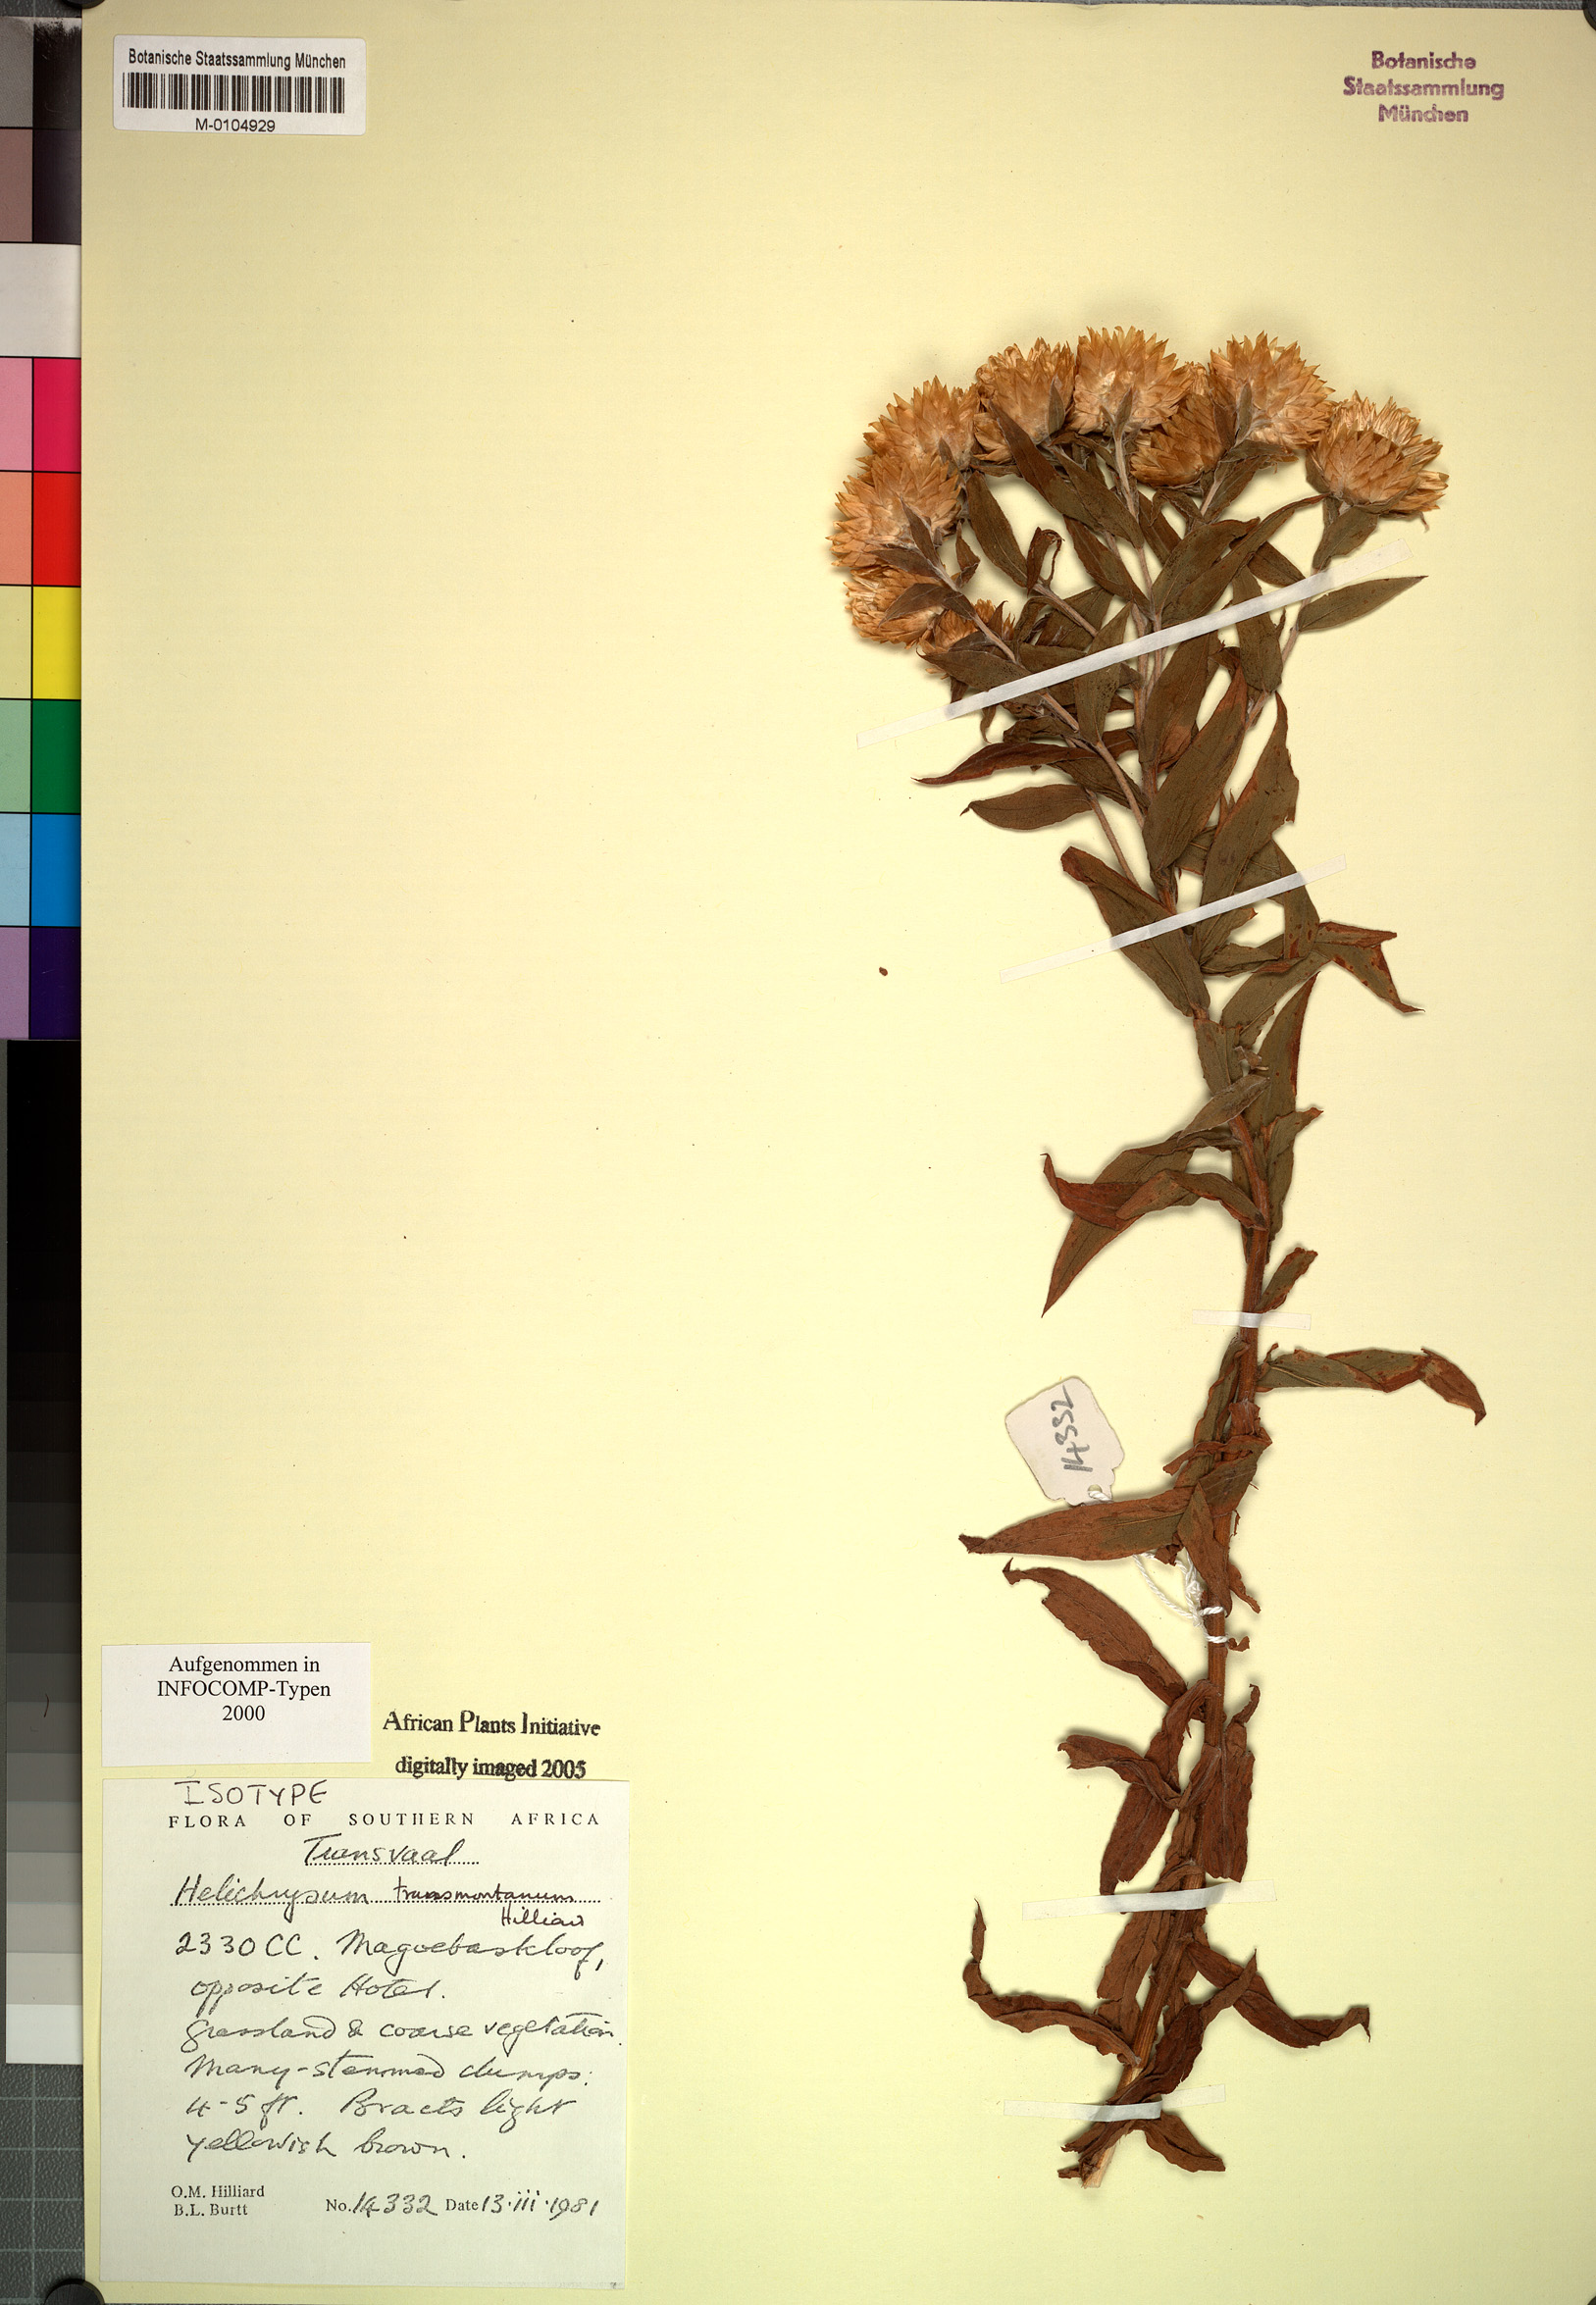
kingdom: Plantae
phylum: Tracheophyta
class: Magnoliopsida
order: Asterales
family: Asteraceae
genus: Helichrysum
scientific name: Helichrysum transmontanum
